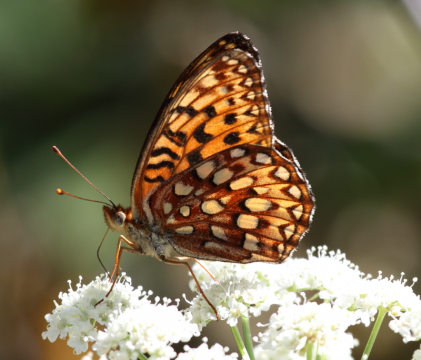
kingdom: Animalia
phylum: Arthropoda
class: Insecta
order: Lepidoptera
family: Nymphalidae
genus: Speyeria
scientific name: Speyeria hydaspe
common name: Hydaspe Fritillary
